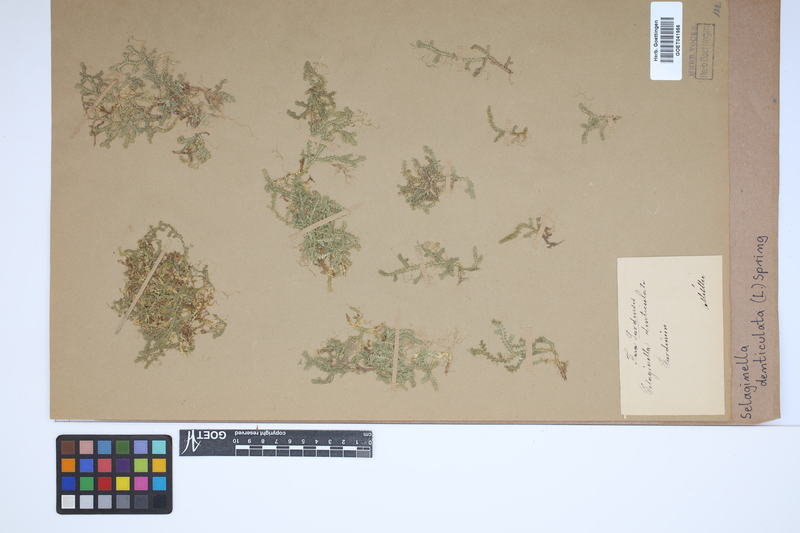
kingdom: Plantae
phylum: Tracheophyta
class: Lycopodiopsida
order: Selaginellales
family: Selaginellaceae
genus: Selaginella
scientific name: Selaginella denticulata
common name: Toothed-leaved clubmoss
